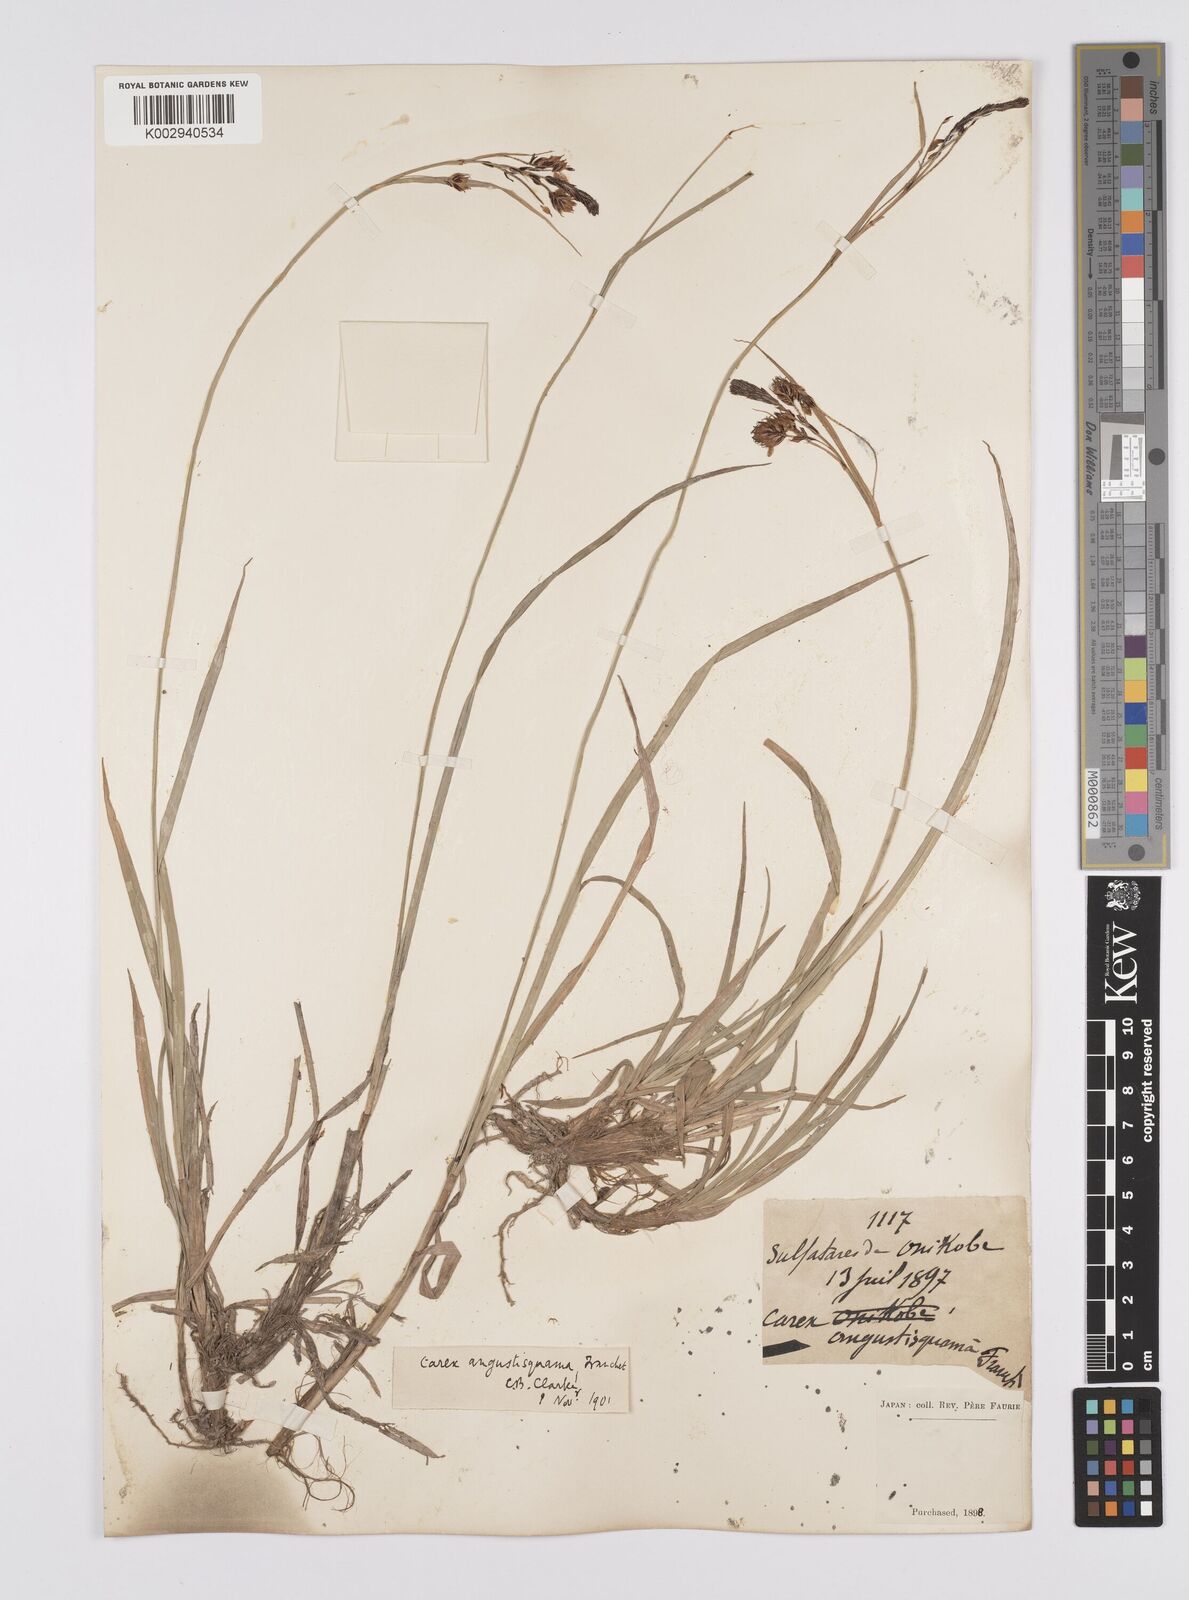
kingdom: Plantae
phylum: Tracheophyta
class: Liliopsida
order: Poales
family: Cyperaceae
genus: Carex
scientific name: Carex angustisquama
